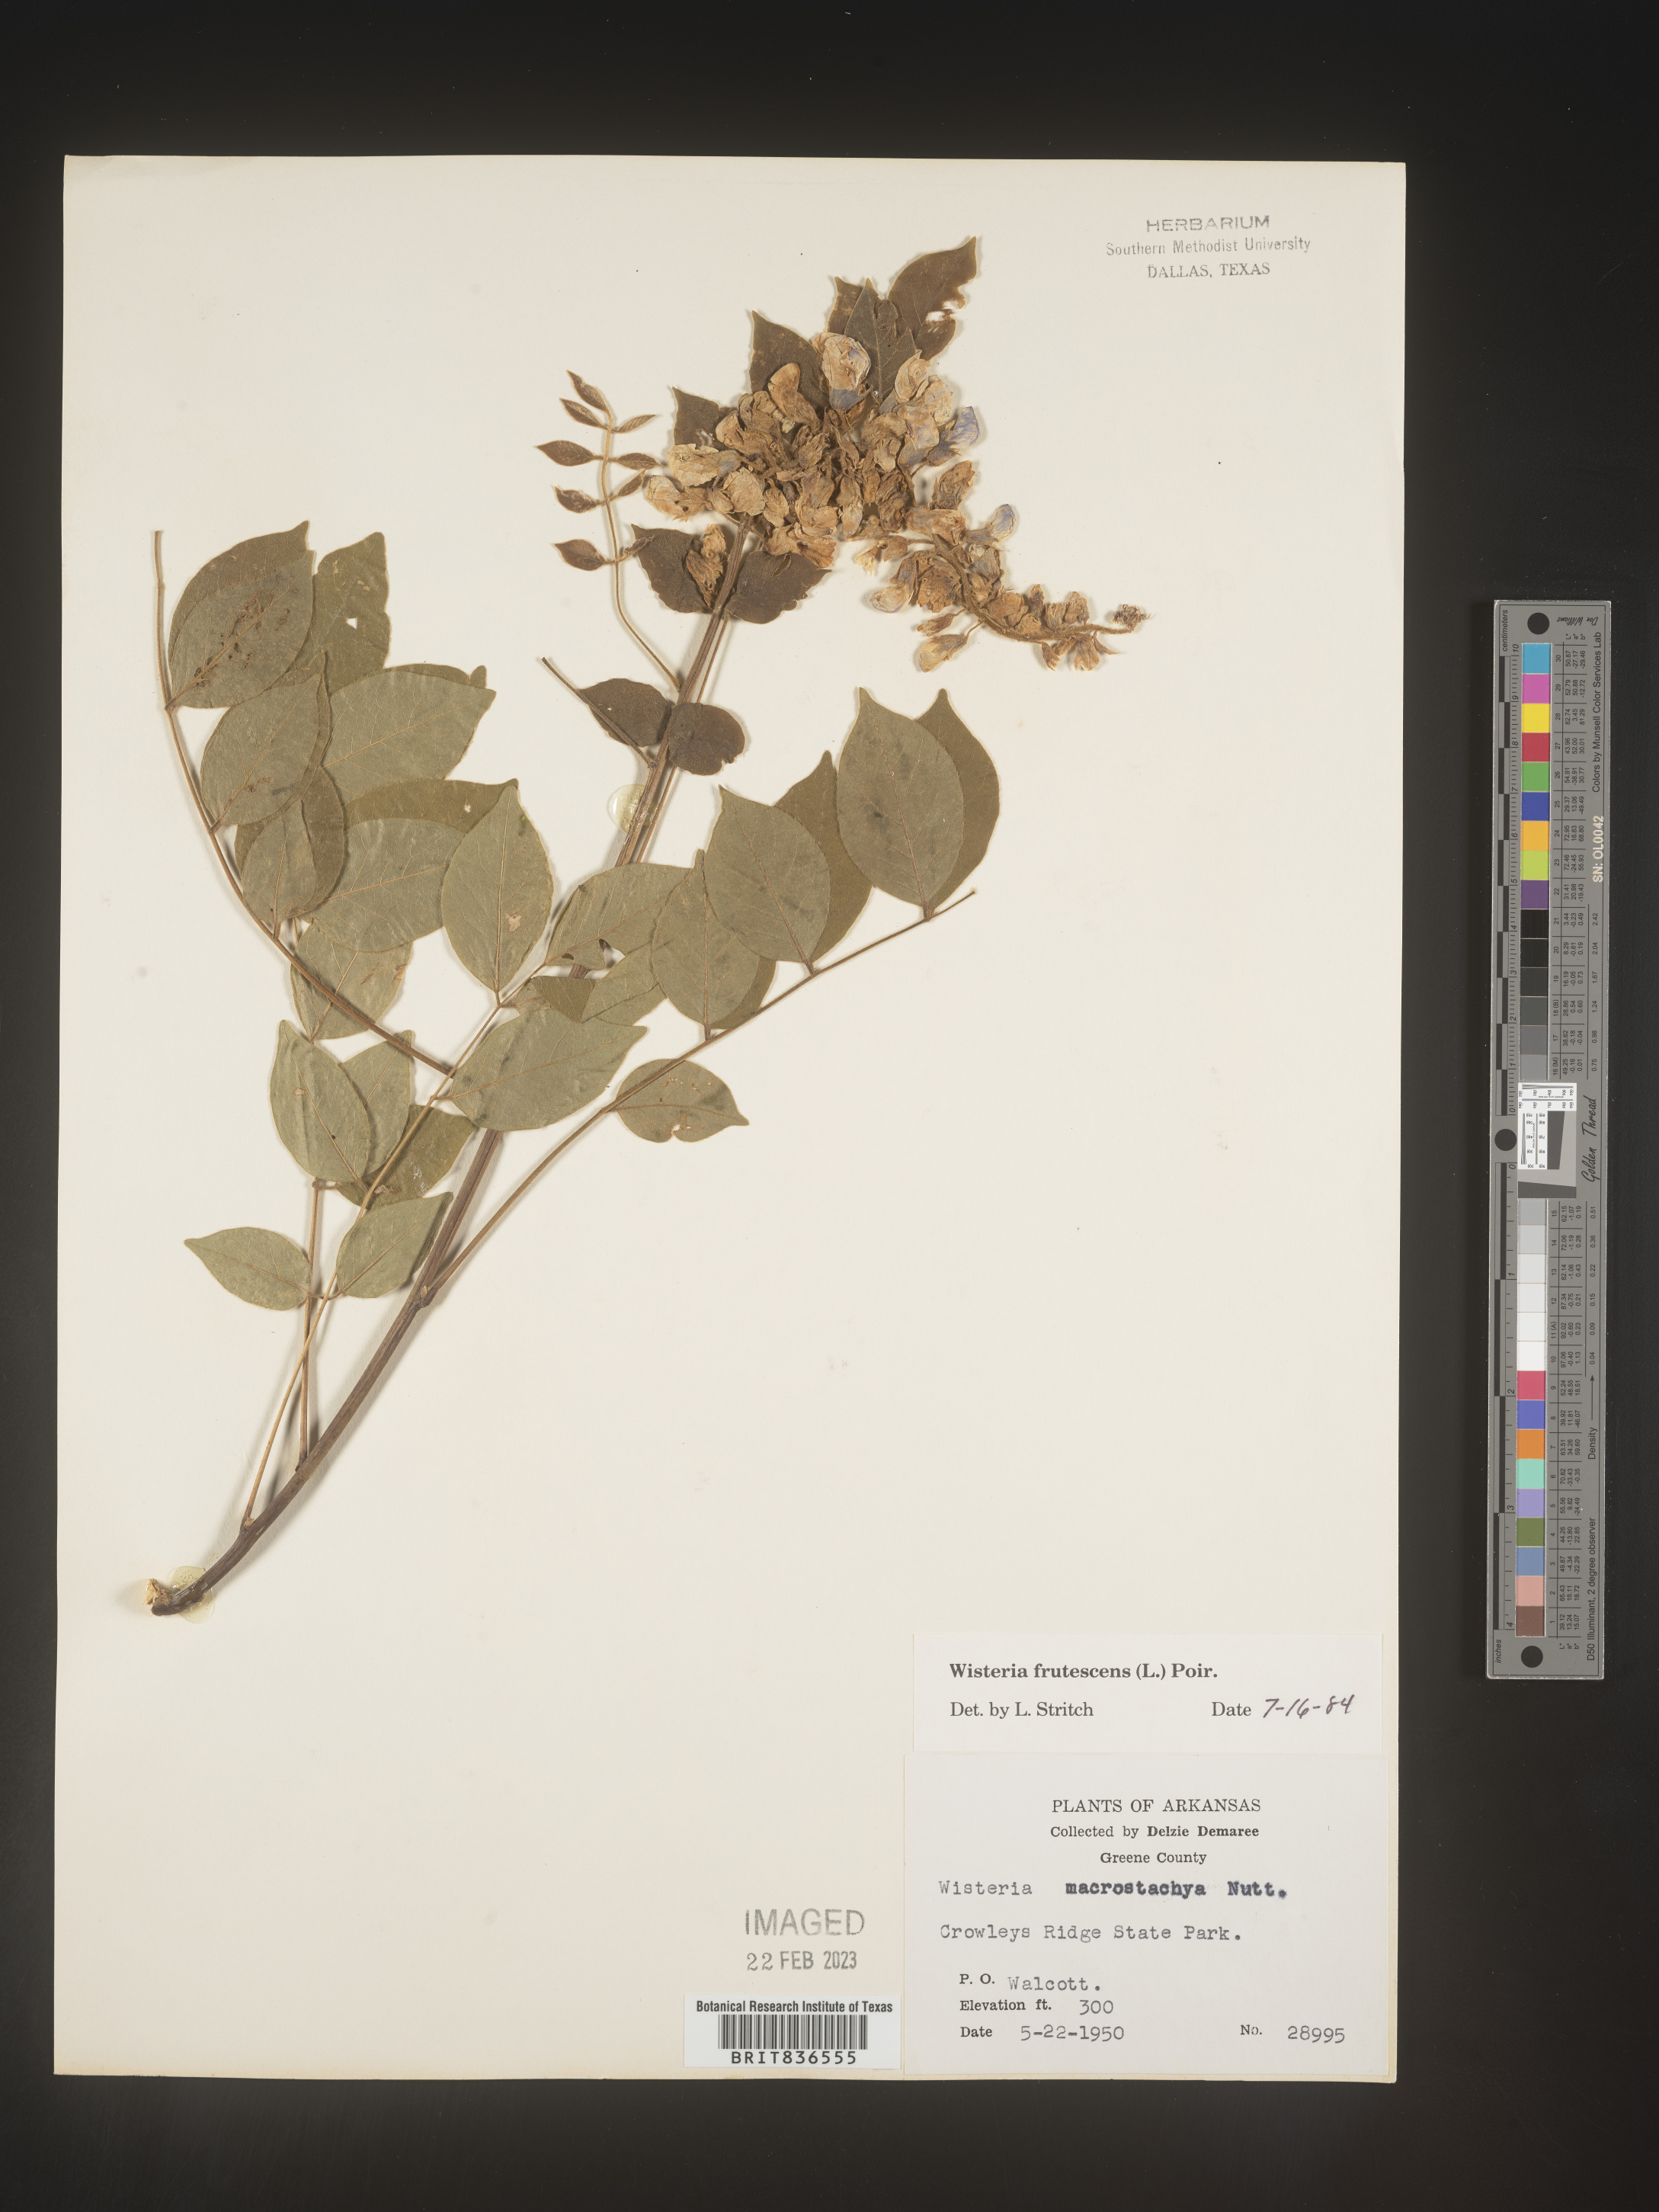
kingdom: Plantae
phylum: Tracheophyta
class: Magnoliopsida
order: Fabales
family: Fabaceae
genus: Wisteria
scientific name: Wisteria
